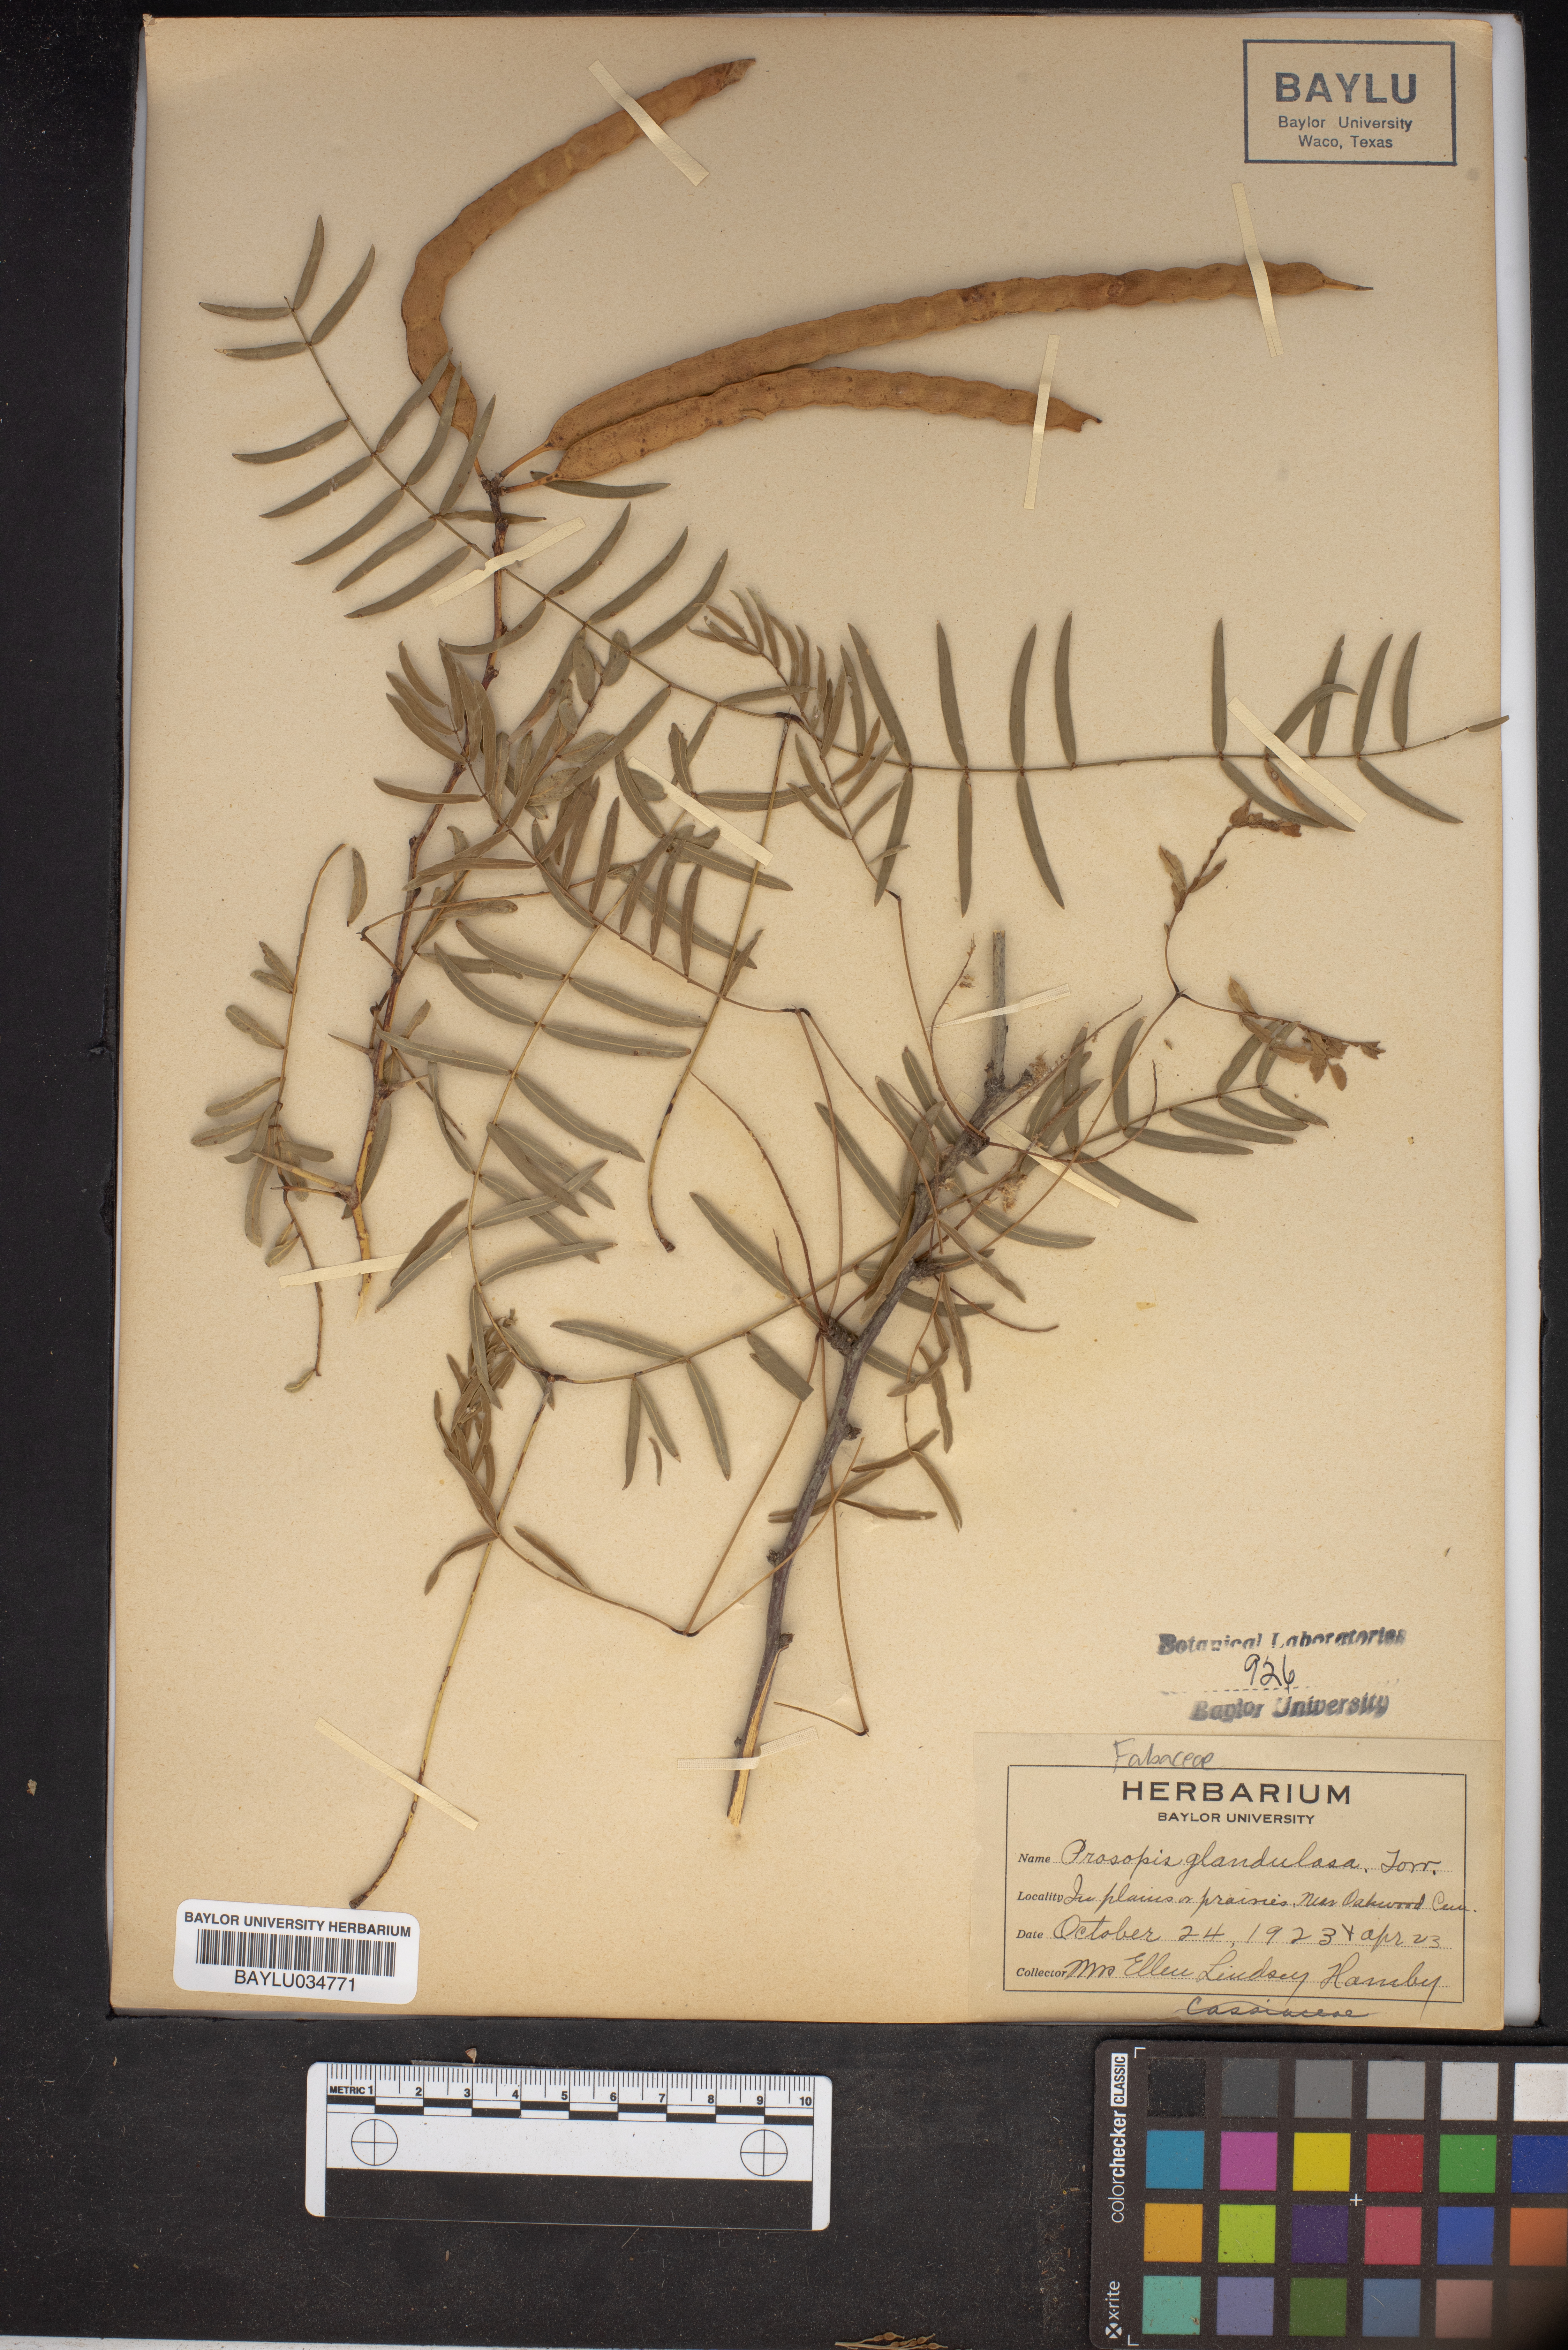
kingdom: Plantae
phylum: Tracheophyta
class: Magnoliopsida
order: Fabales
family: Fabaceae
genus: Prosopis
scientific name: Prosopis glandulosa
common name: Honey mesquite
